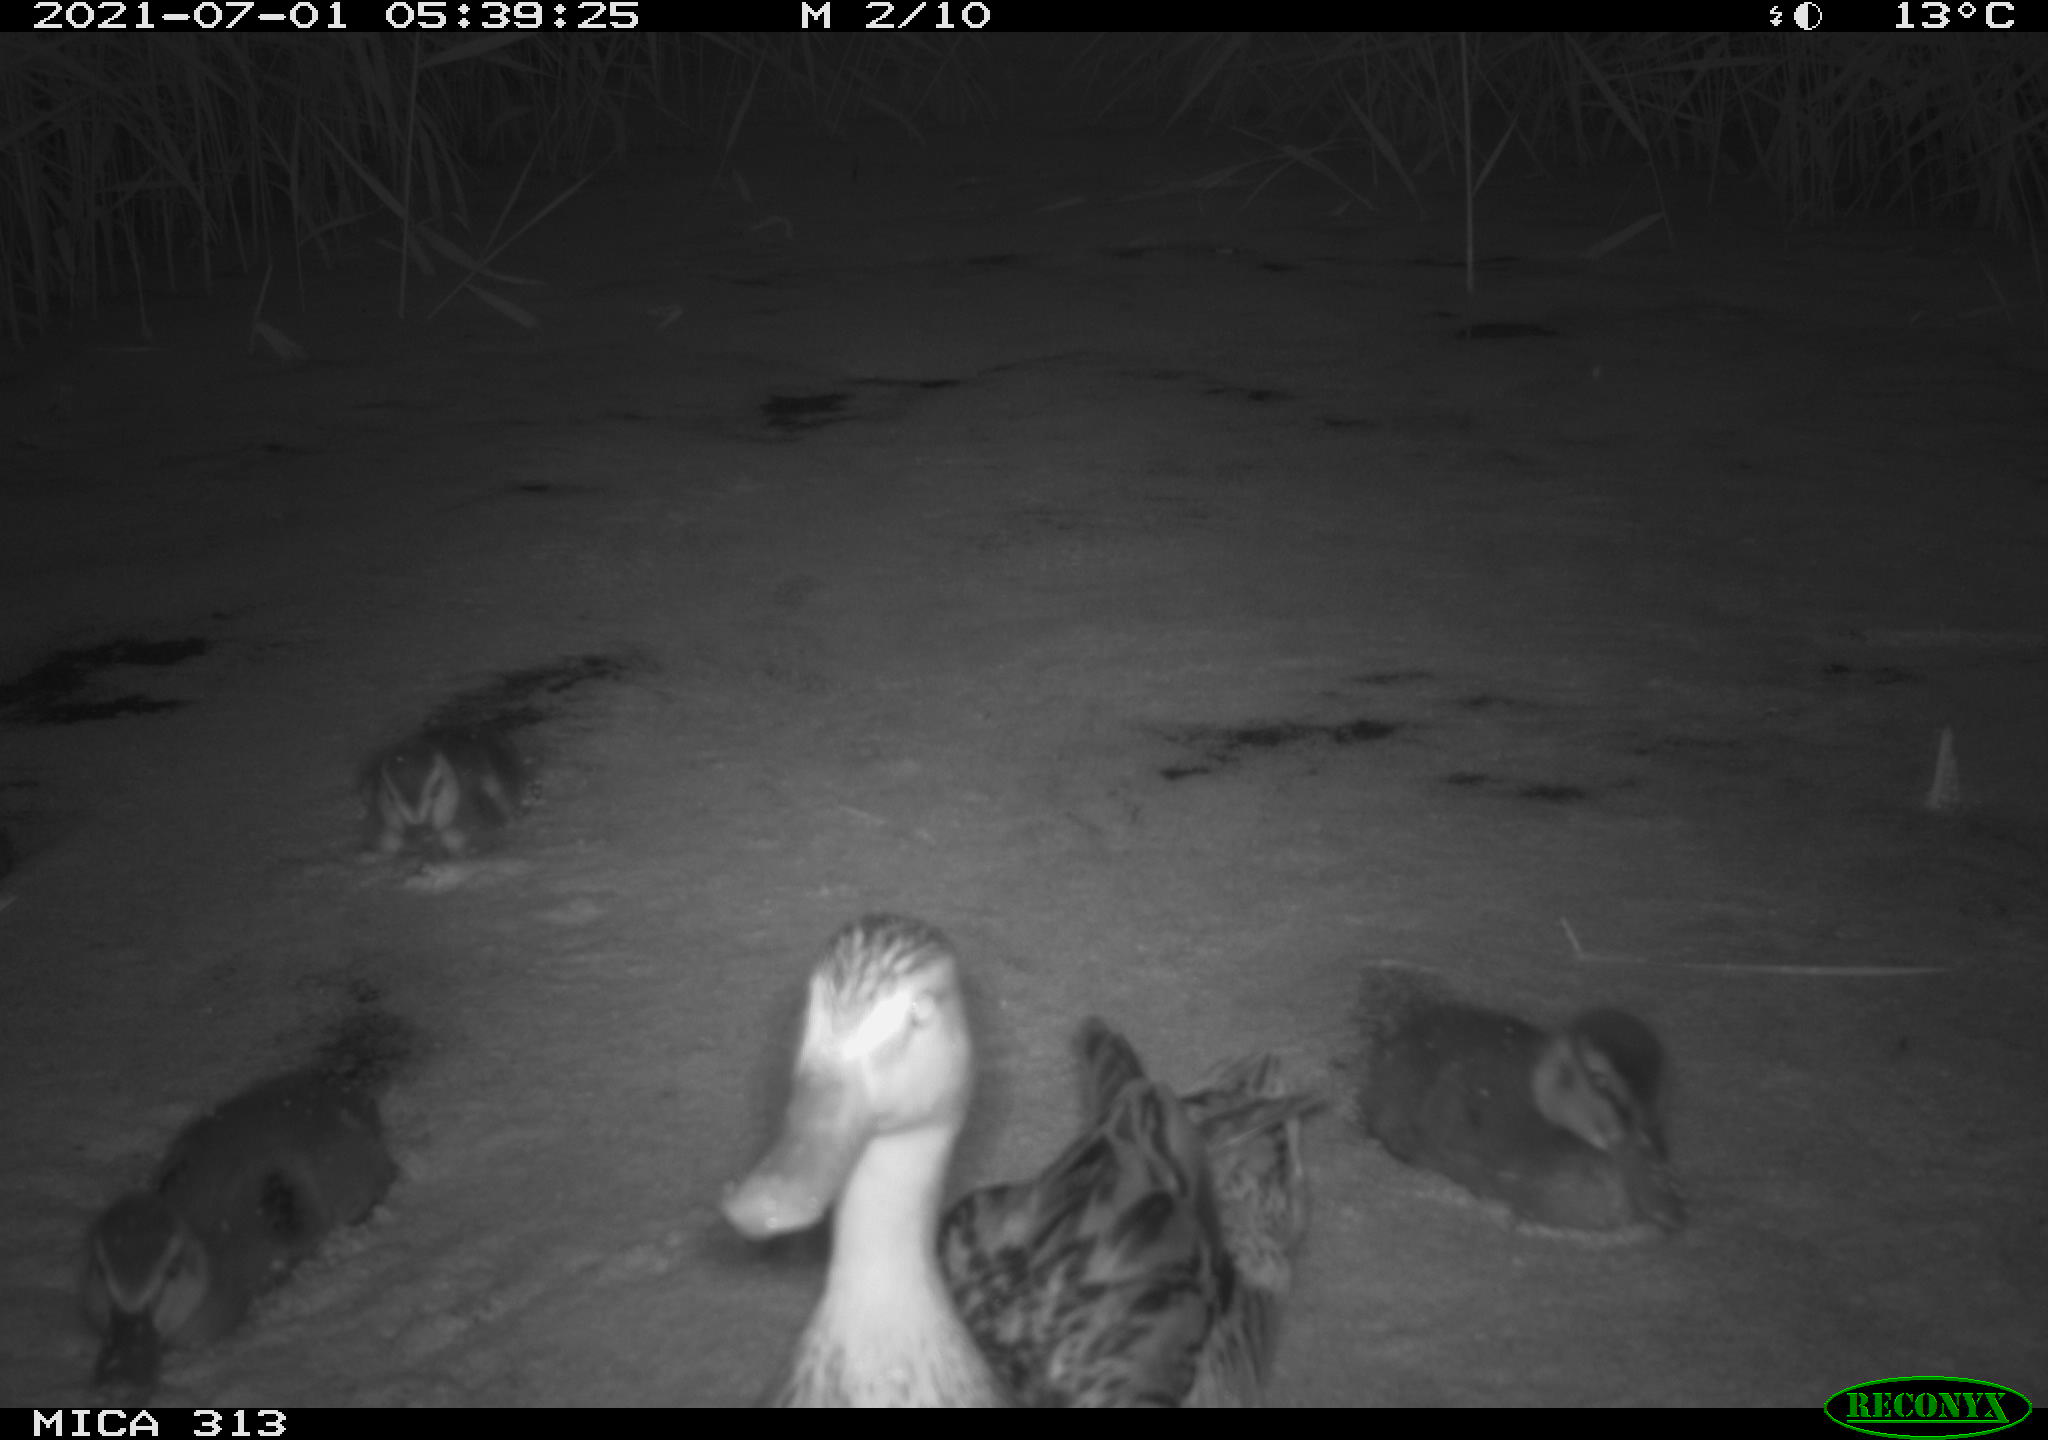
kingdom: Animalia
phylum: Chordata
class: Aves
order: Anseriformes
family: Anatidae
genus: Anas
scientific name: Anas
